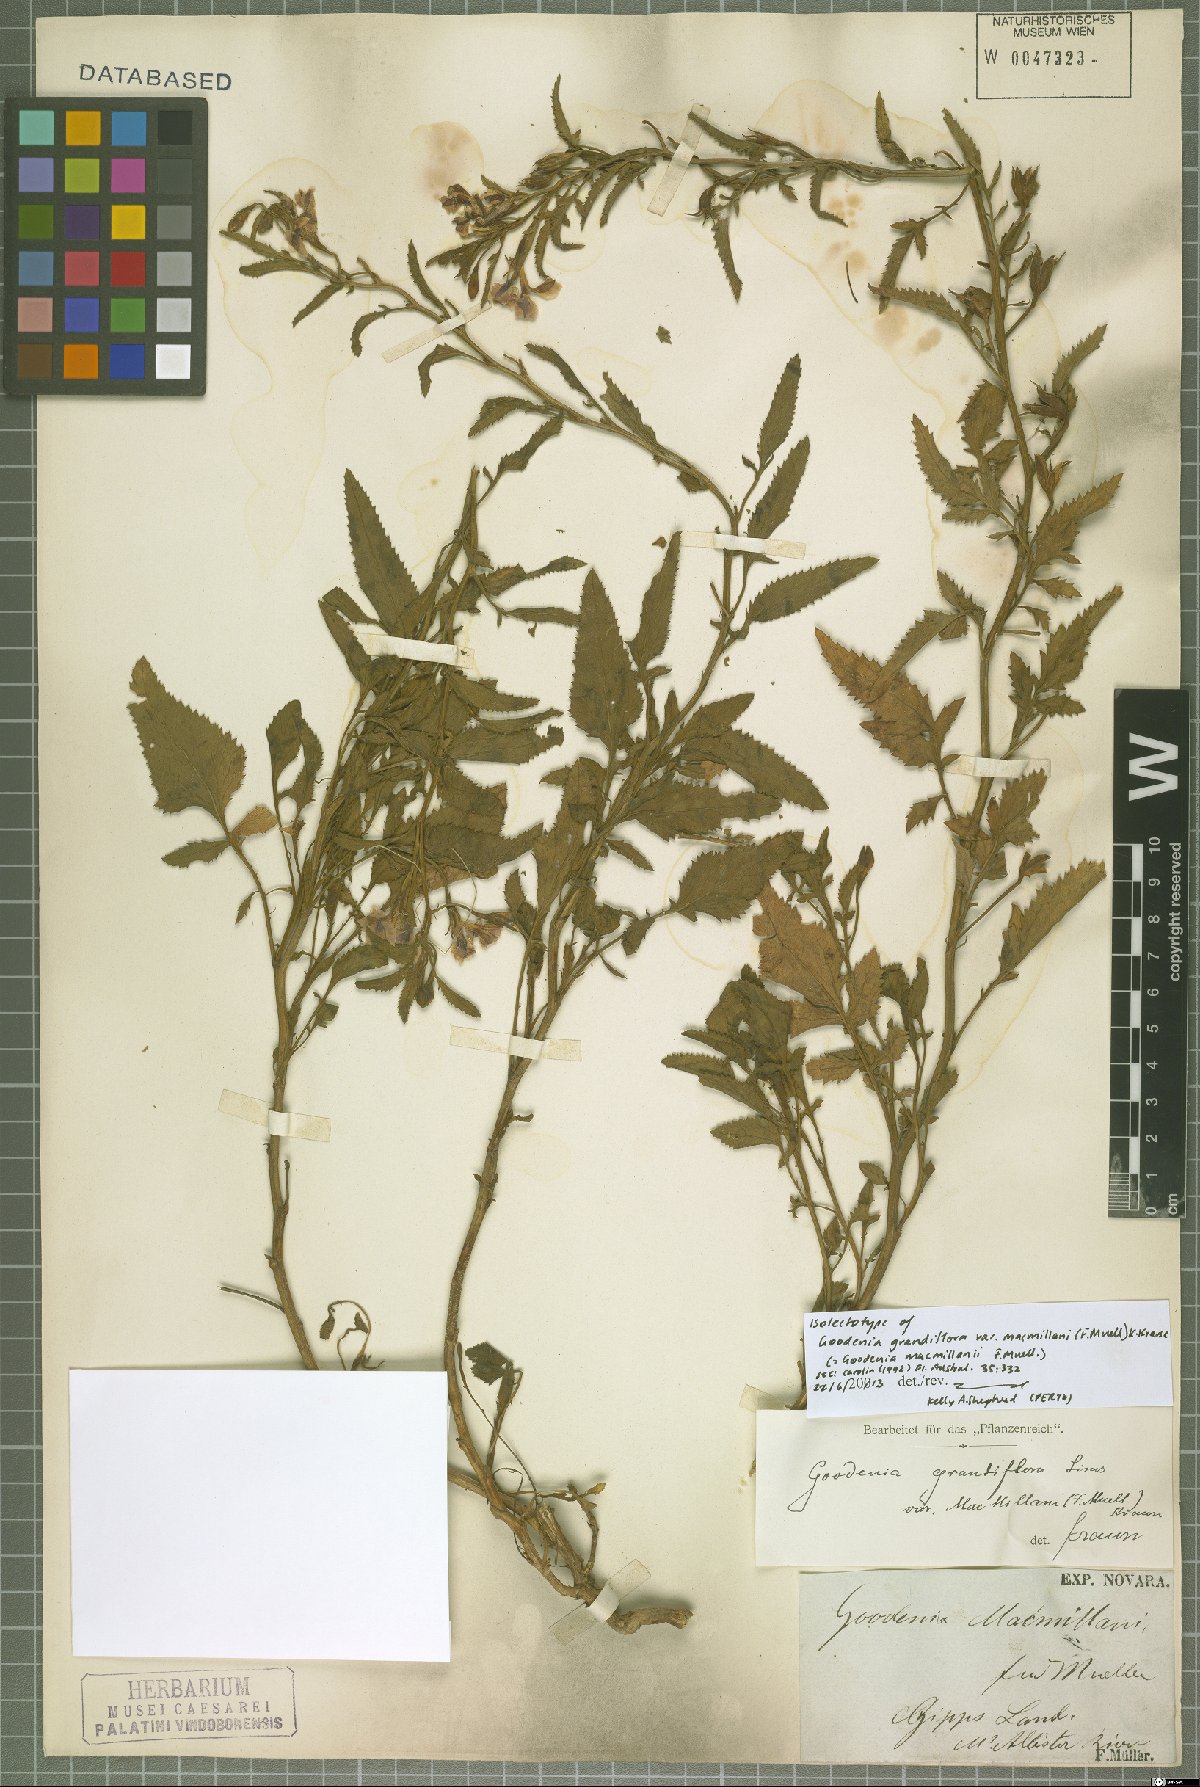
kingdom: Plantae
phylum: Tracheophyta
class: Magnoliopsida
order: Asterales
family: Goodeniaceae
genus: Goodenia
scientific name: Goodenia macmillanii
